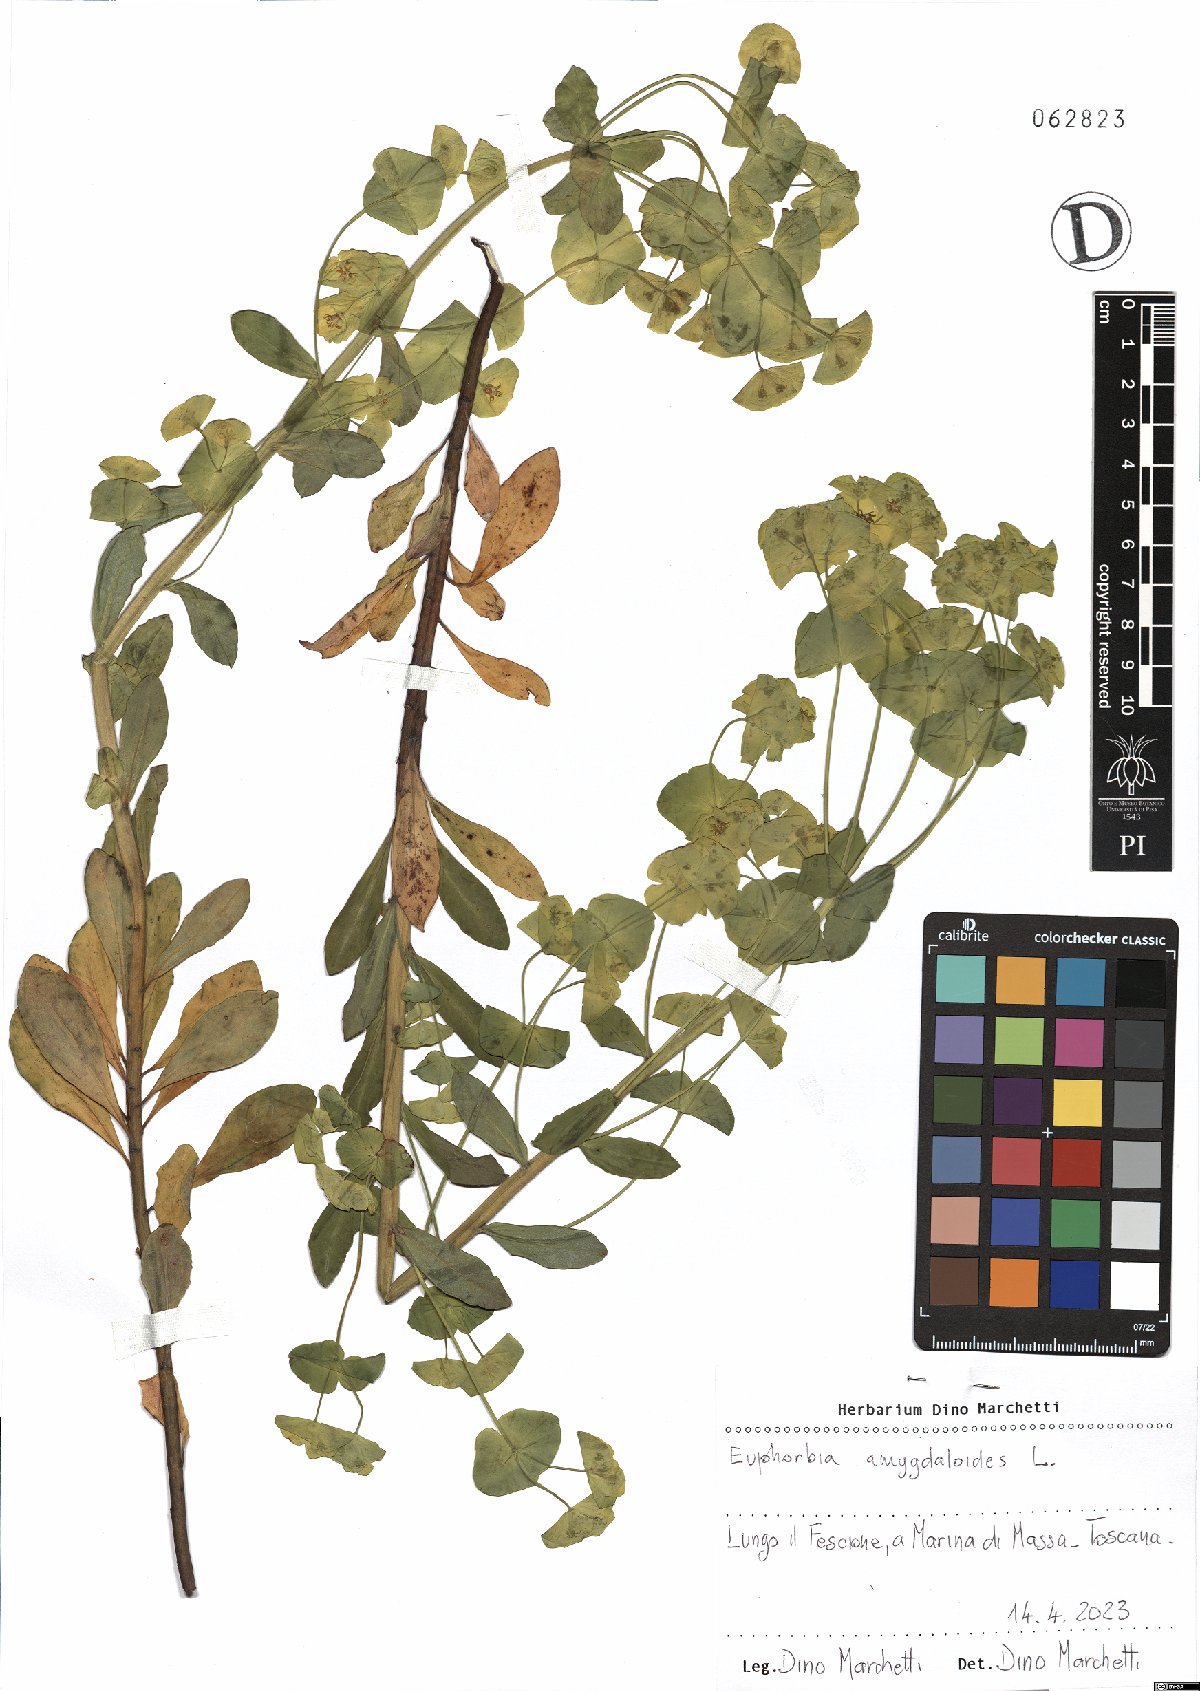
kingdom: Plantae
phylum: Tracheophyta
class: Magnoliopsida
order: Malpighiales
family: Euphorbiaceae
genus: Euphorbia
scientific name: Euphorbia amygdaloides
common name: Wood spurge
